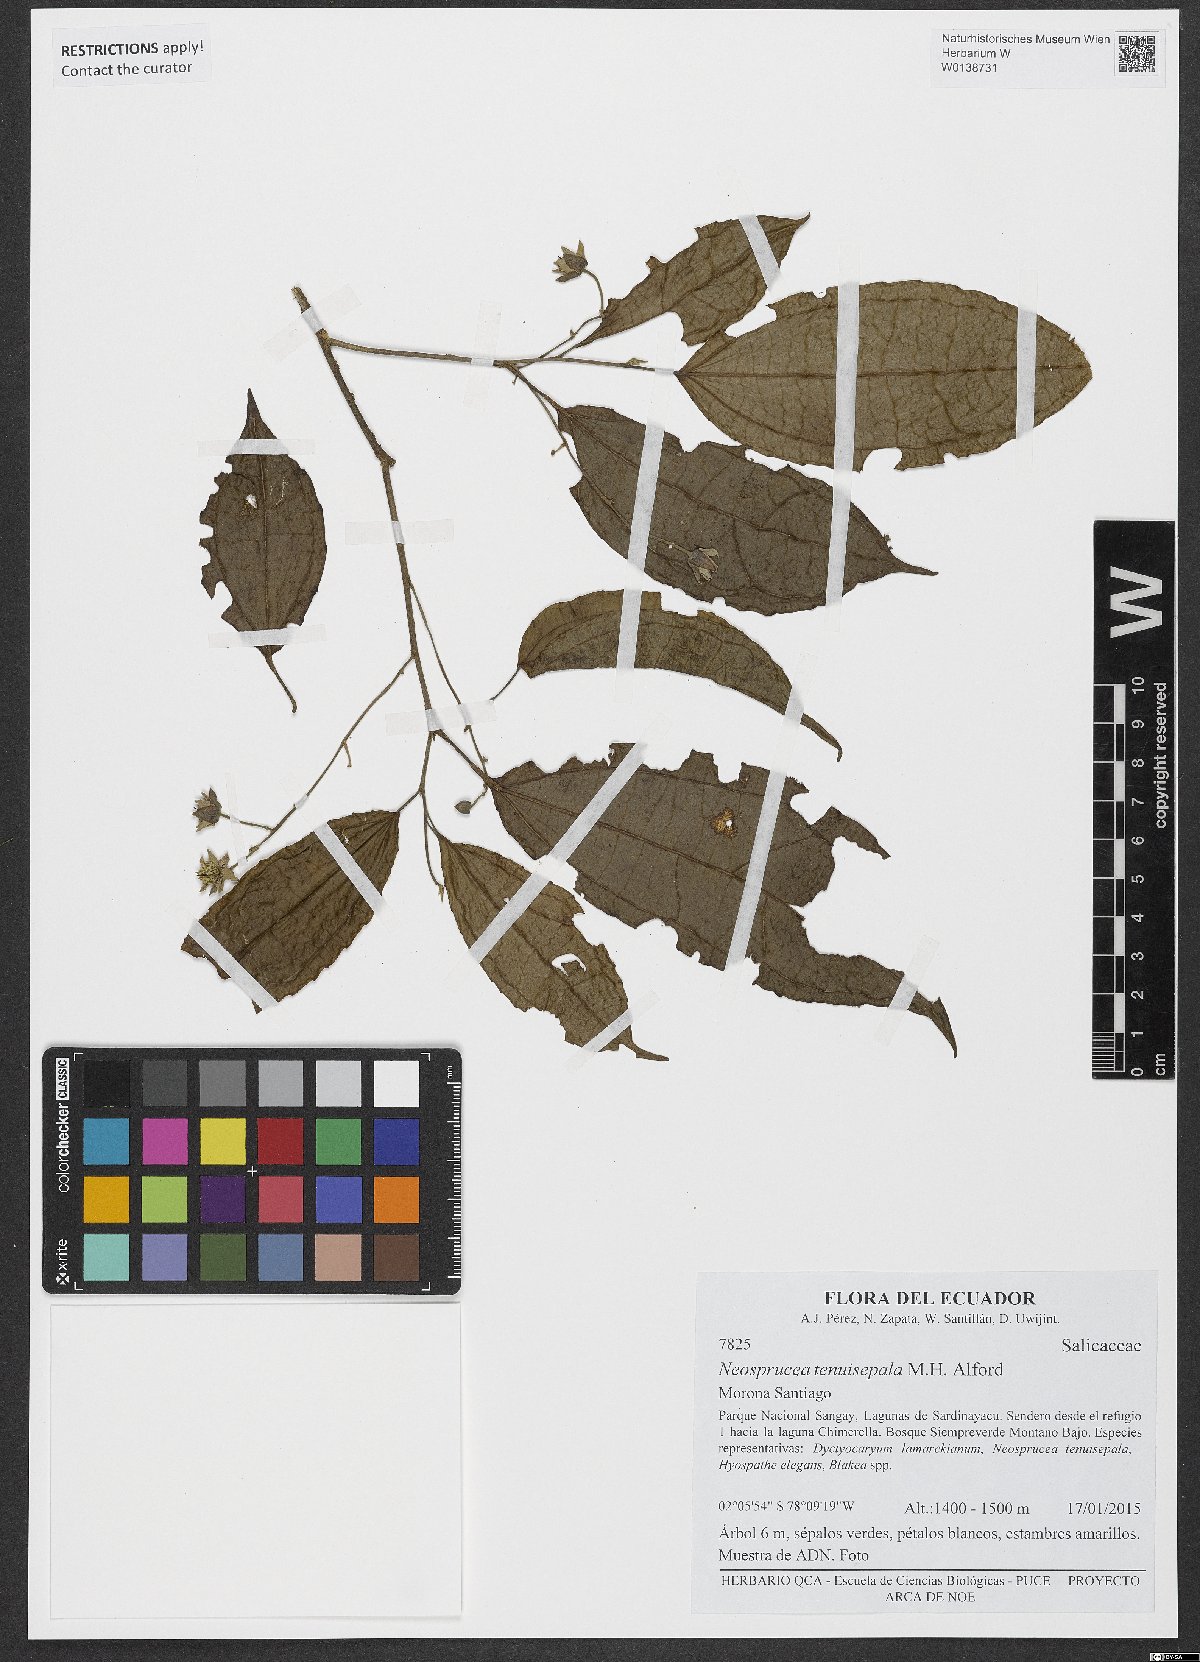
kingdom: Plantae
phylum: Tracheophyta
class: Magnoliopsida
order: Malpighiales
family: Salicaceae
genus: Neosprucea
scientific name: Neosprucea tenuisepala
